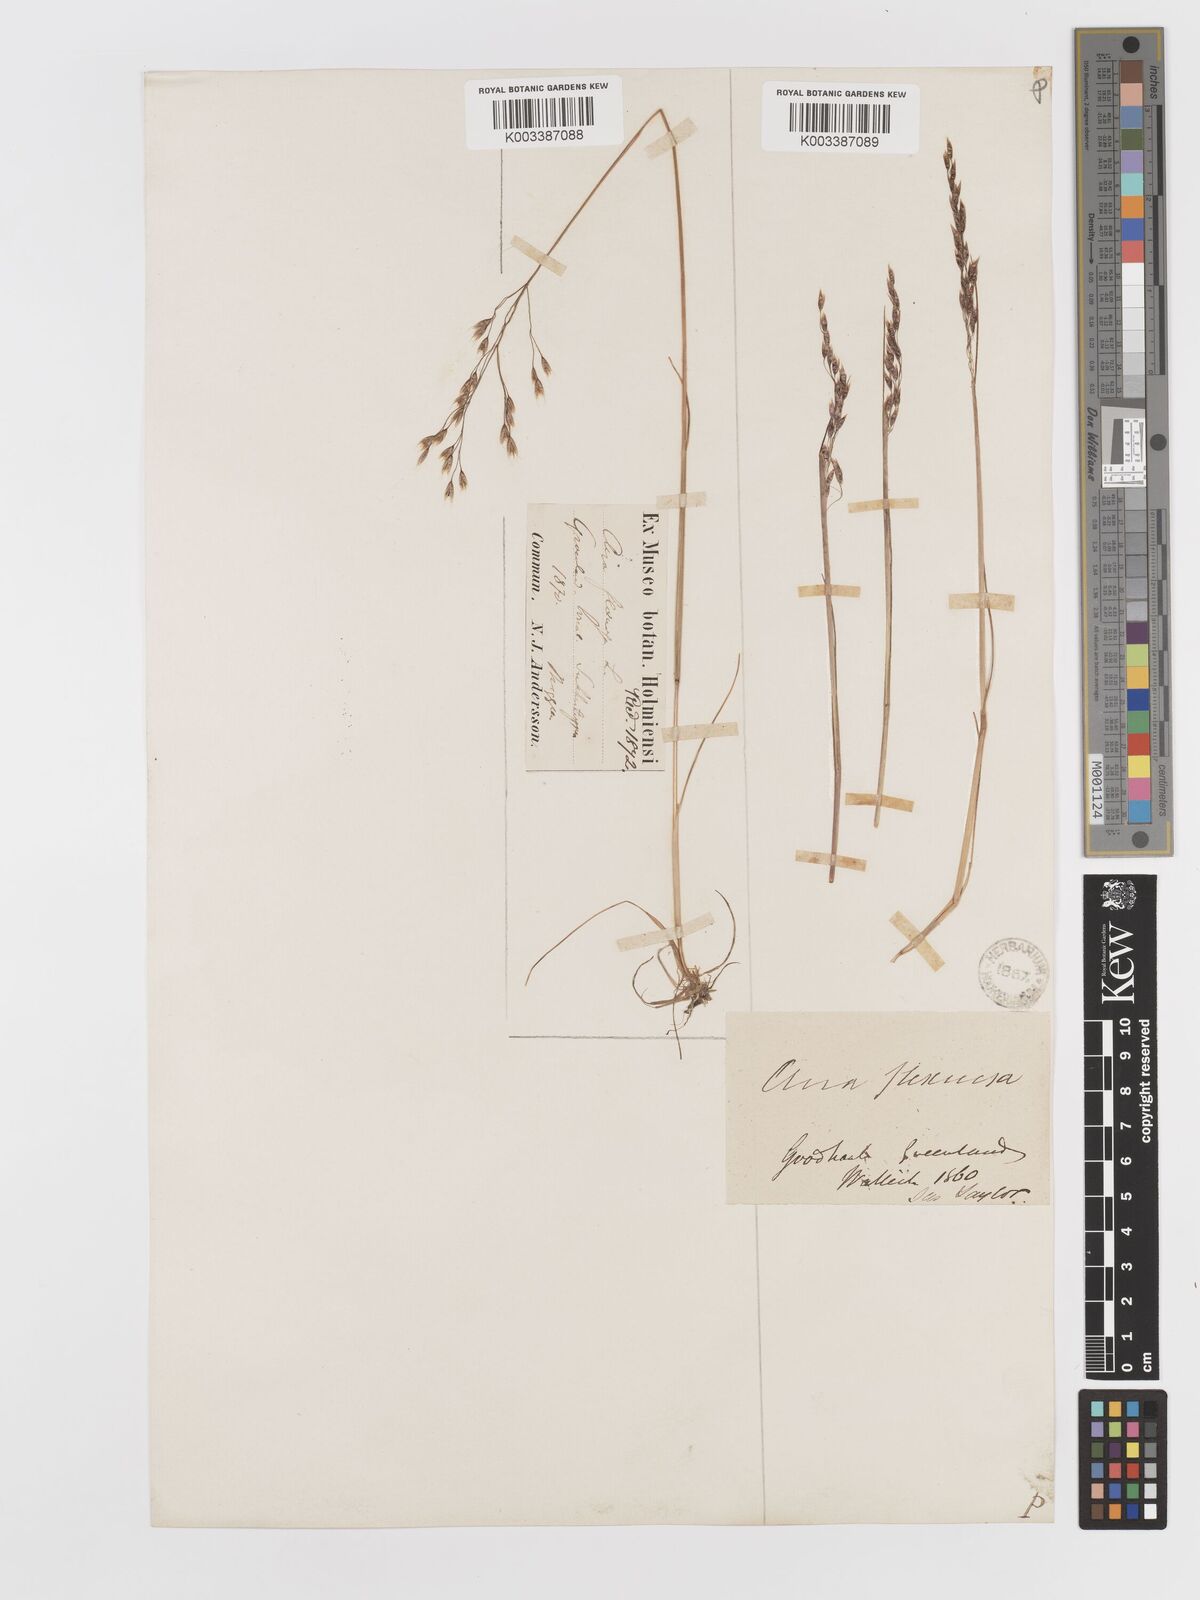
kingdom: Plantae
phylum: Tracheophyta
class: Liliopsida
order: Poales
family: Poaceae
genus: Avenella
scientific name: Avenella flexuosa
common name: Wavy hairgrass
